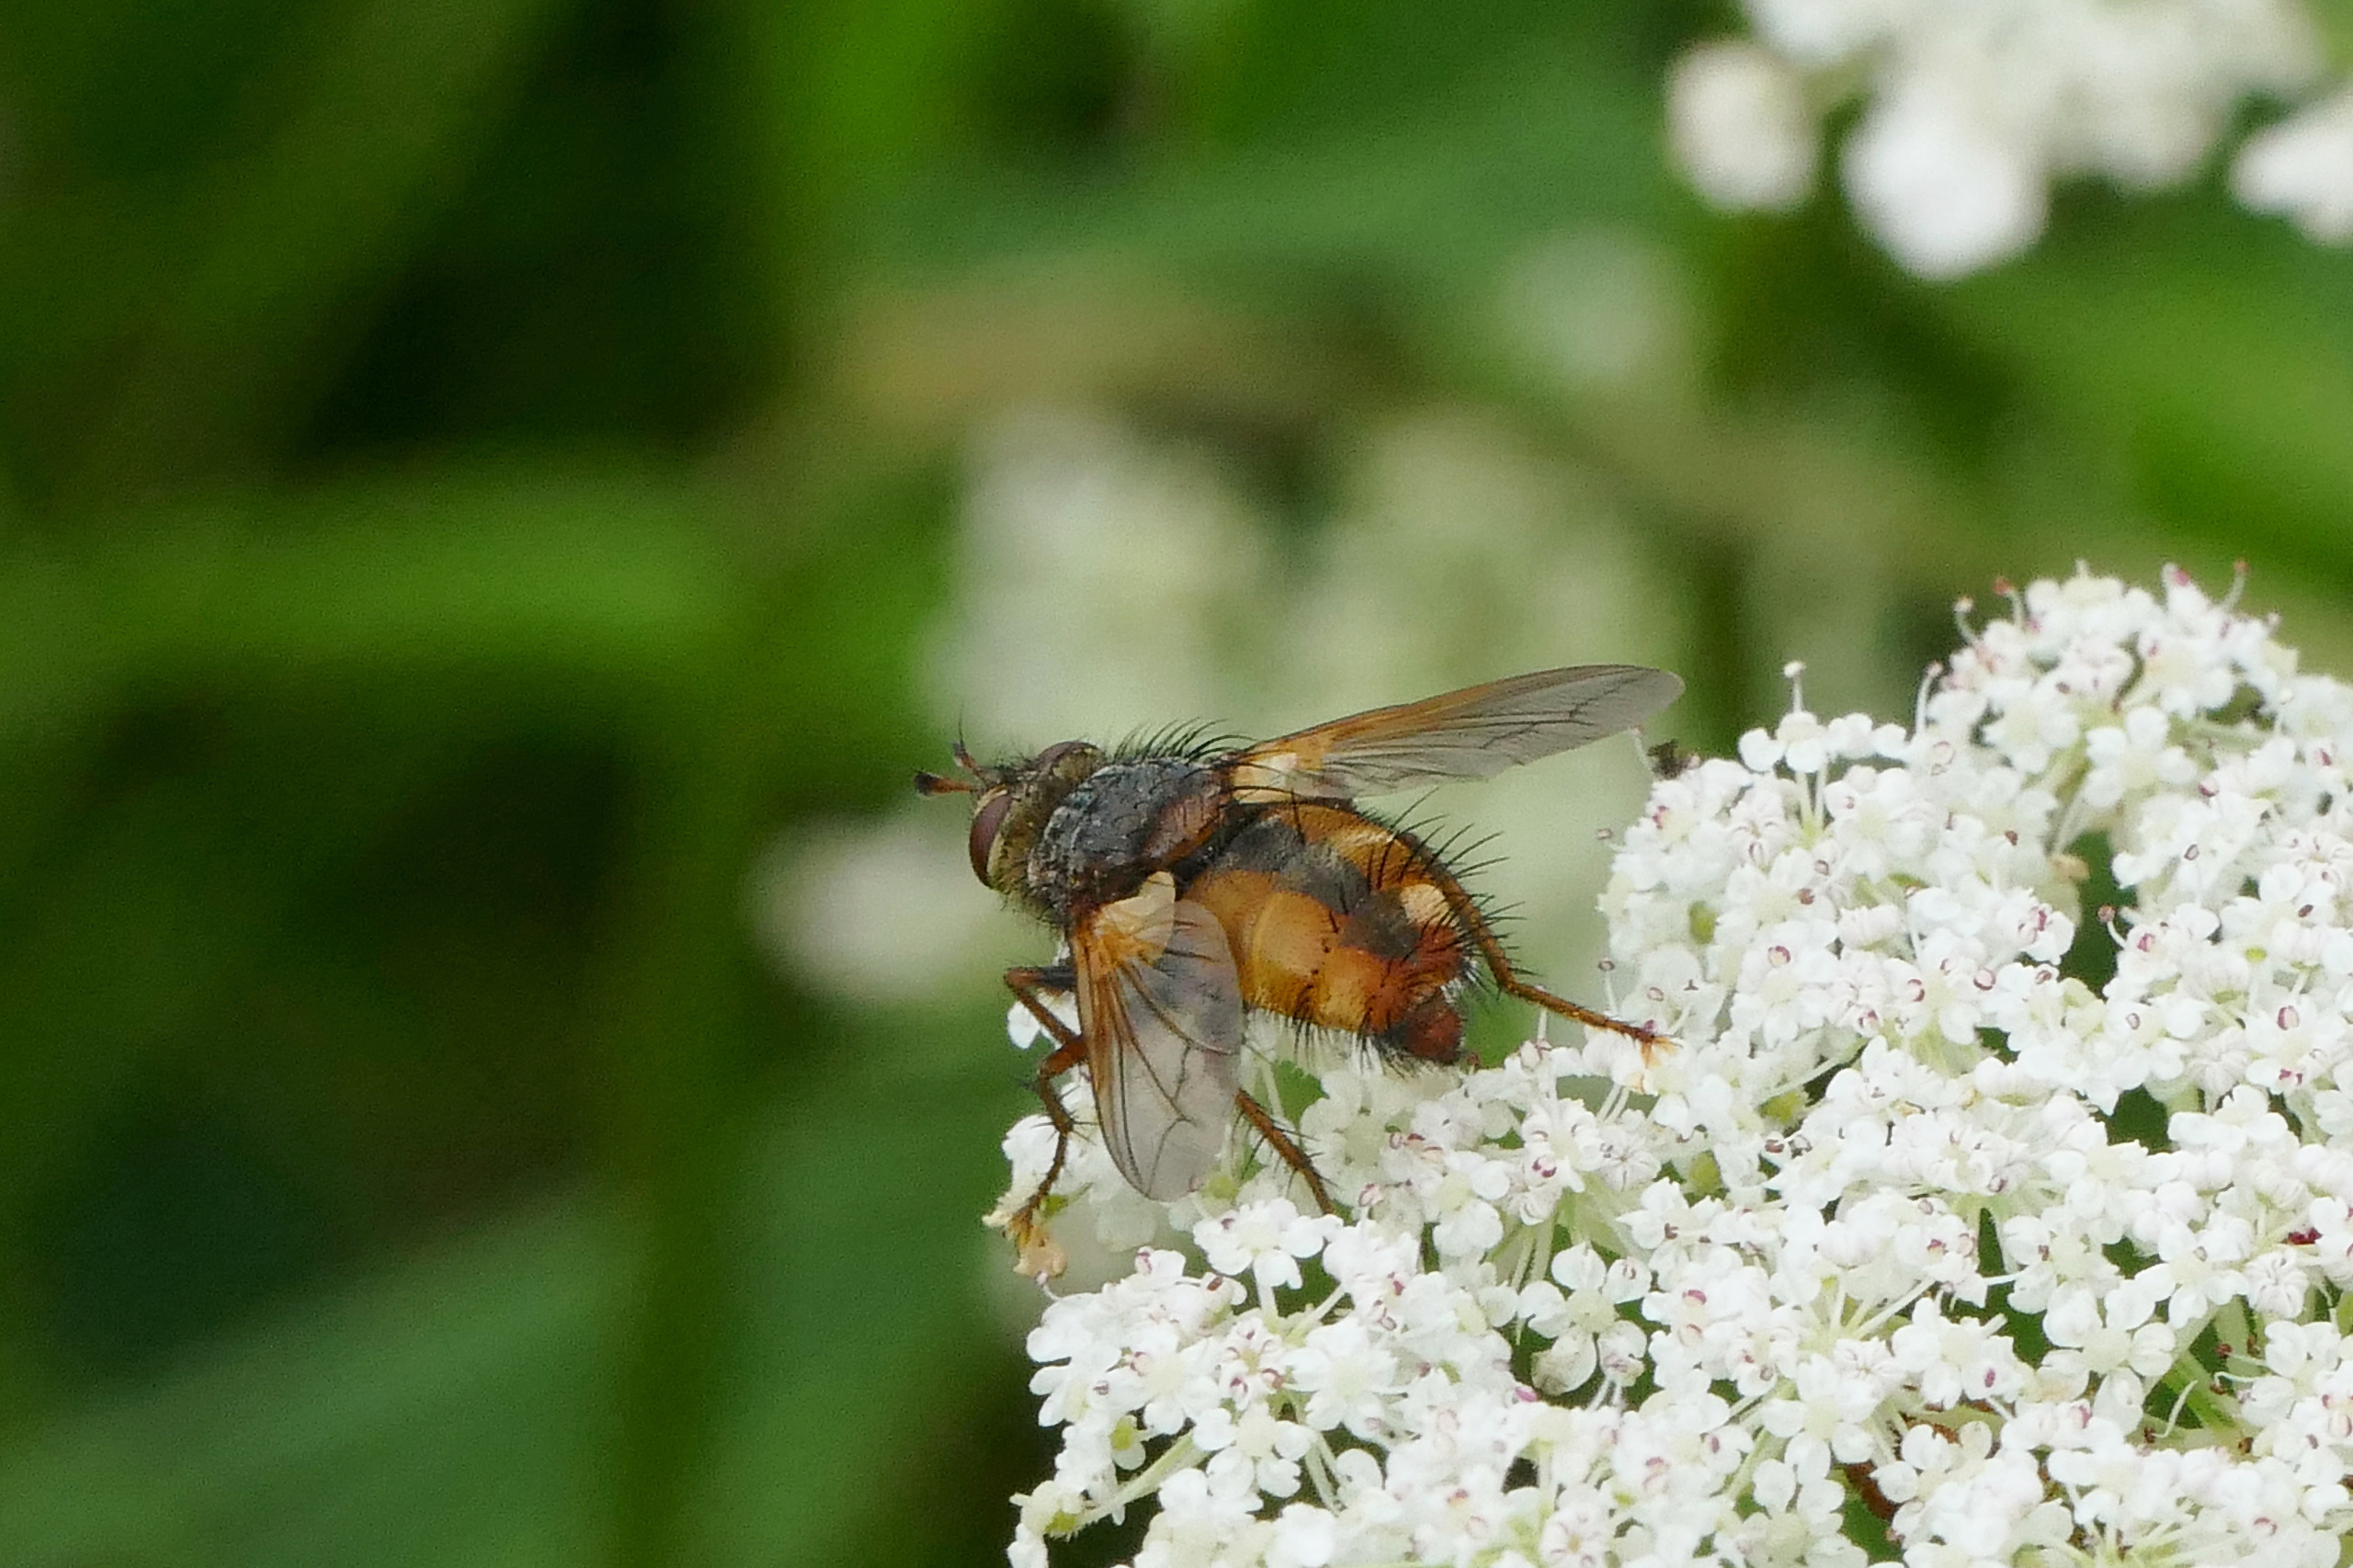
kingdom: Animalia
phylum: Arthropoda
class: Insecta
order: Diptera
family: Tachinidae
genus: Tachina
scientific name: Tachina fera
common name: Mellemfluen oskar
